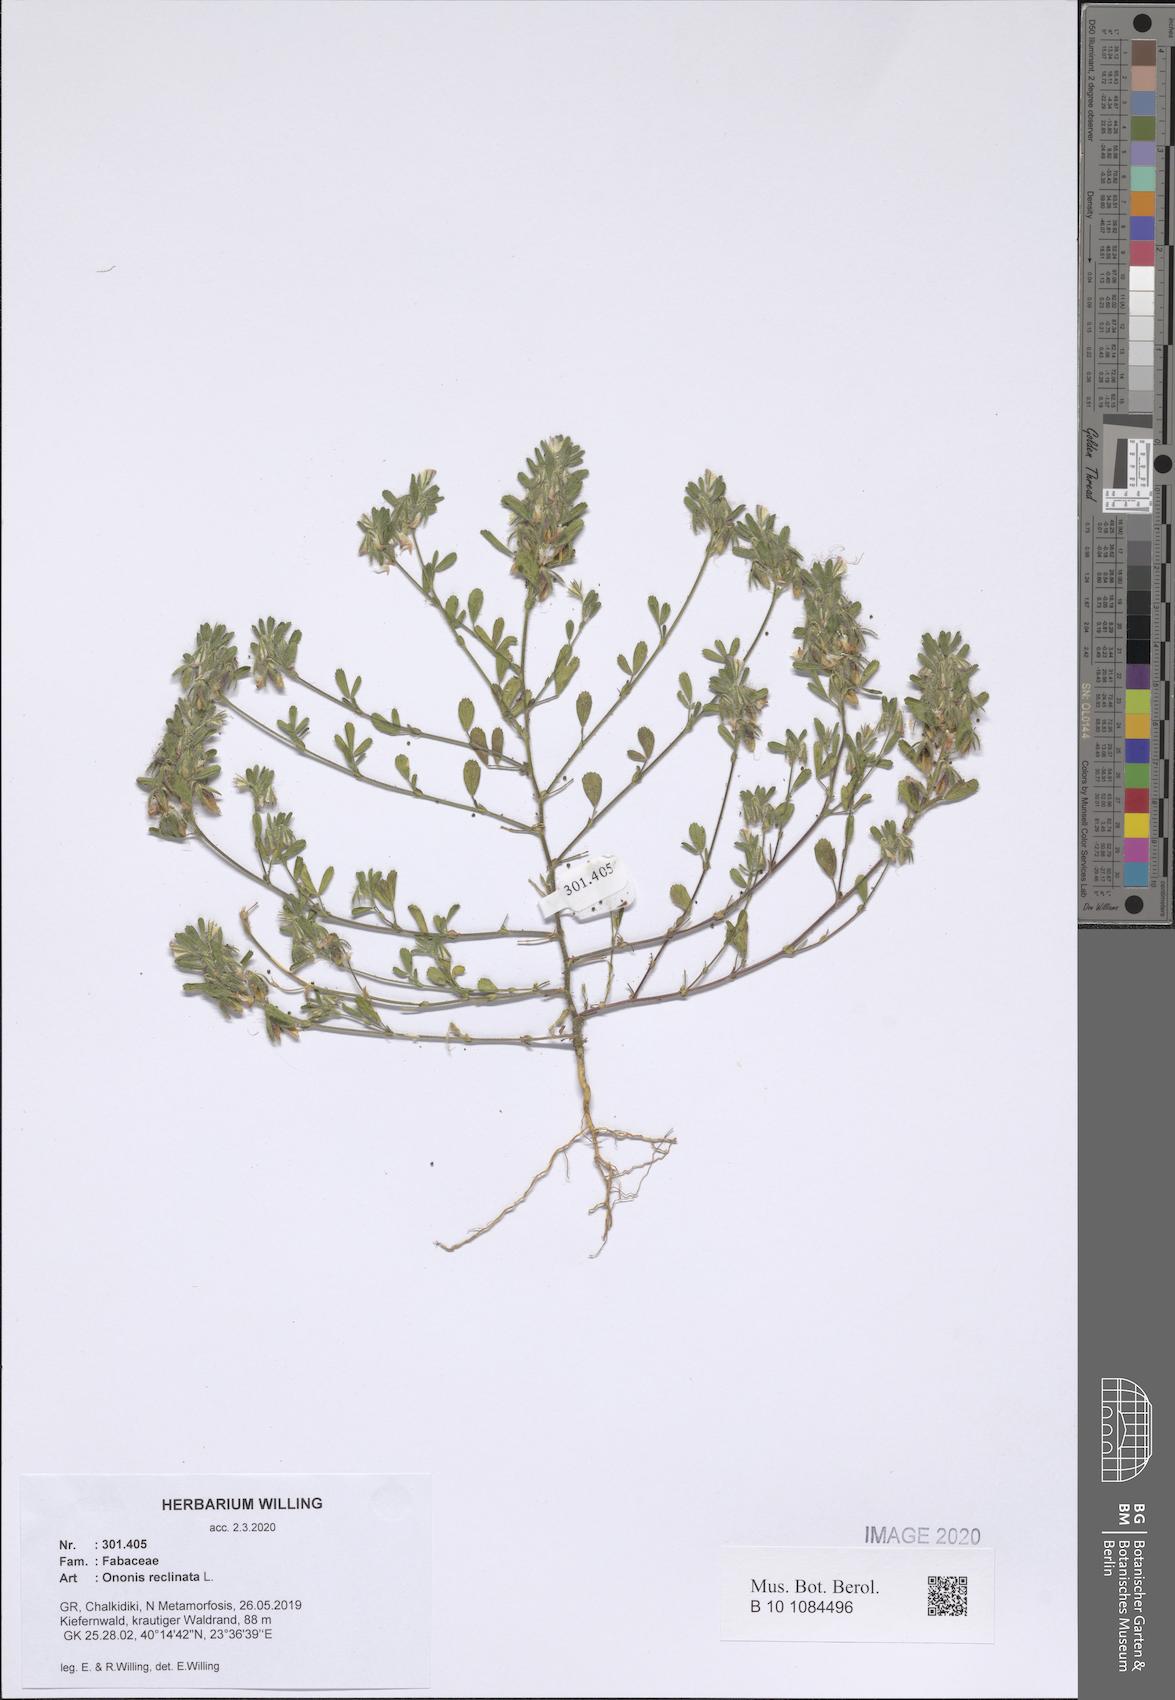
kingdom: Plantae
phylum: Tracheophyta
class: Magnoliopsida
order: Fabales
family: Fabaceae
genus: Ononis
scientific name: Ononis reclinata
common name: Small restharrow
